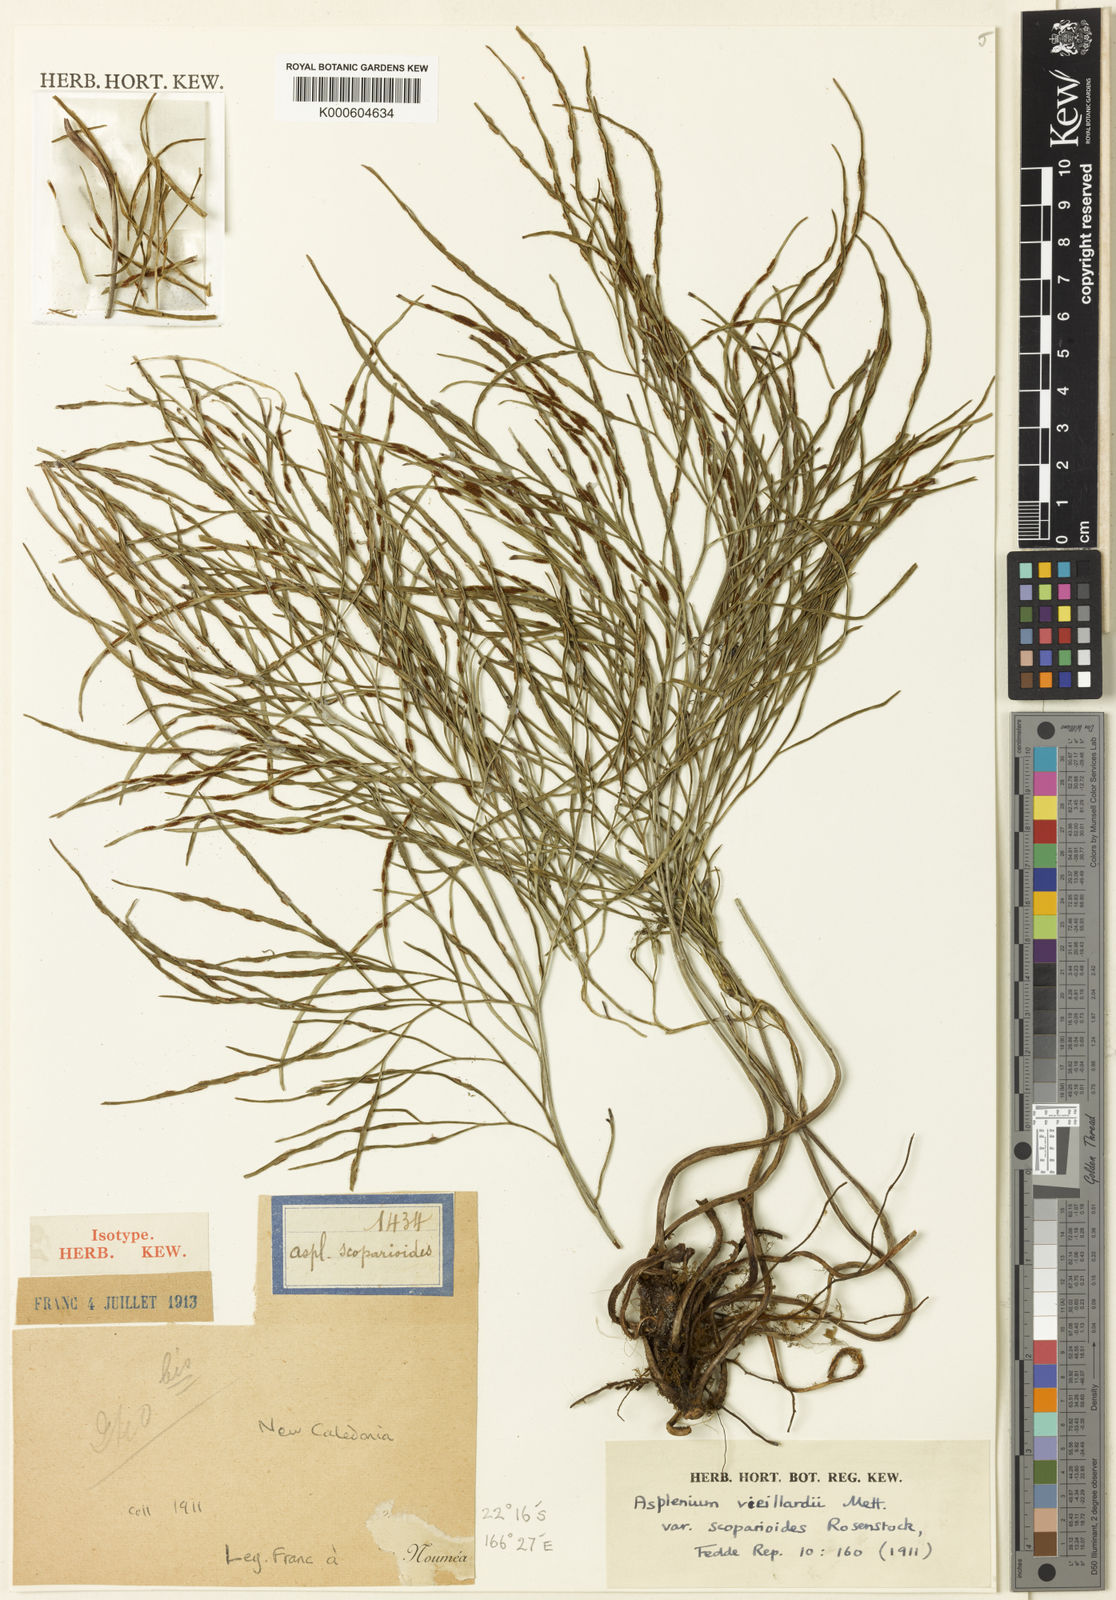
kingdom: Plantae
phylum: Tracheophyta
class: Polypodiopsida
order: Polypodiales
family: Aspleniaceae
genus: Asplenium
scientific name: Asplenium vieillardii
